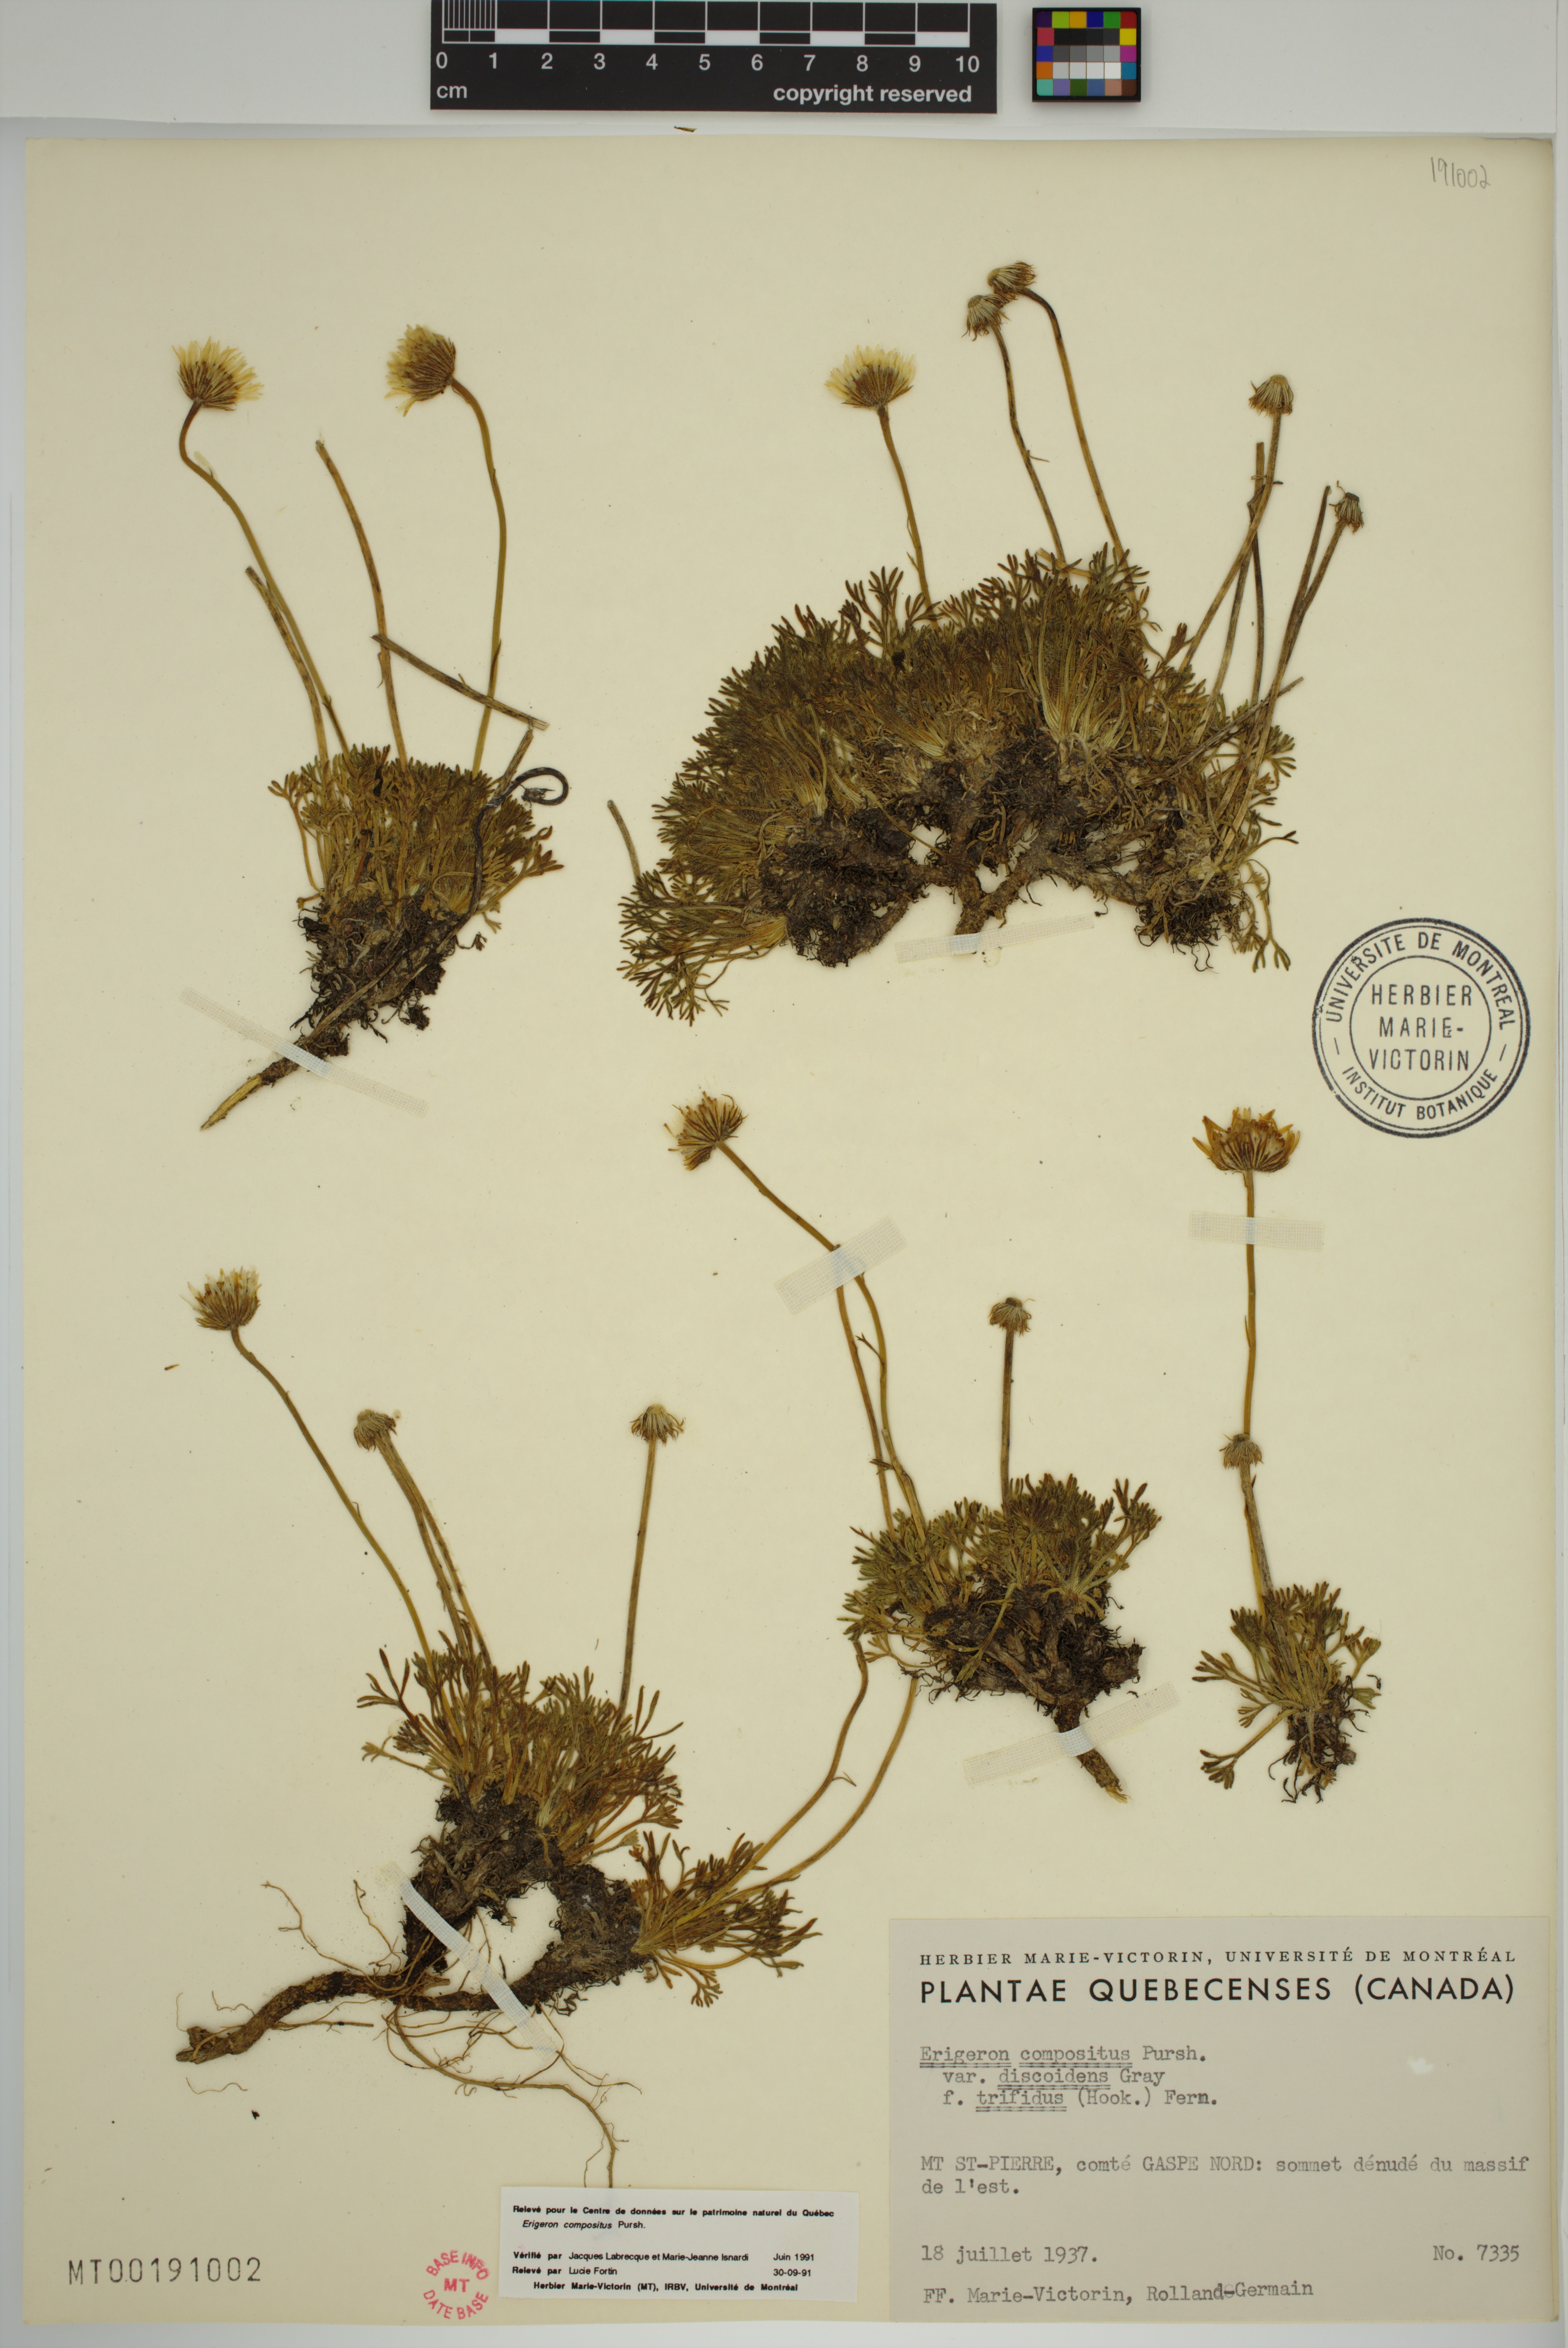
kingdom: Plantae
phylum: Tracheophyta
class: Magnoliopsida
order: Asterales
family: Asteraceae
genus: Erigeron
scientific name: Erigeron compositus
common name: Dwarf mountain fleabane
